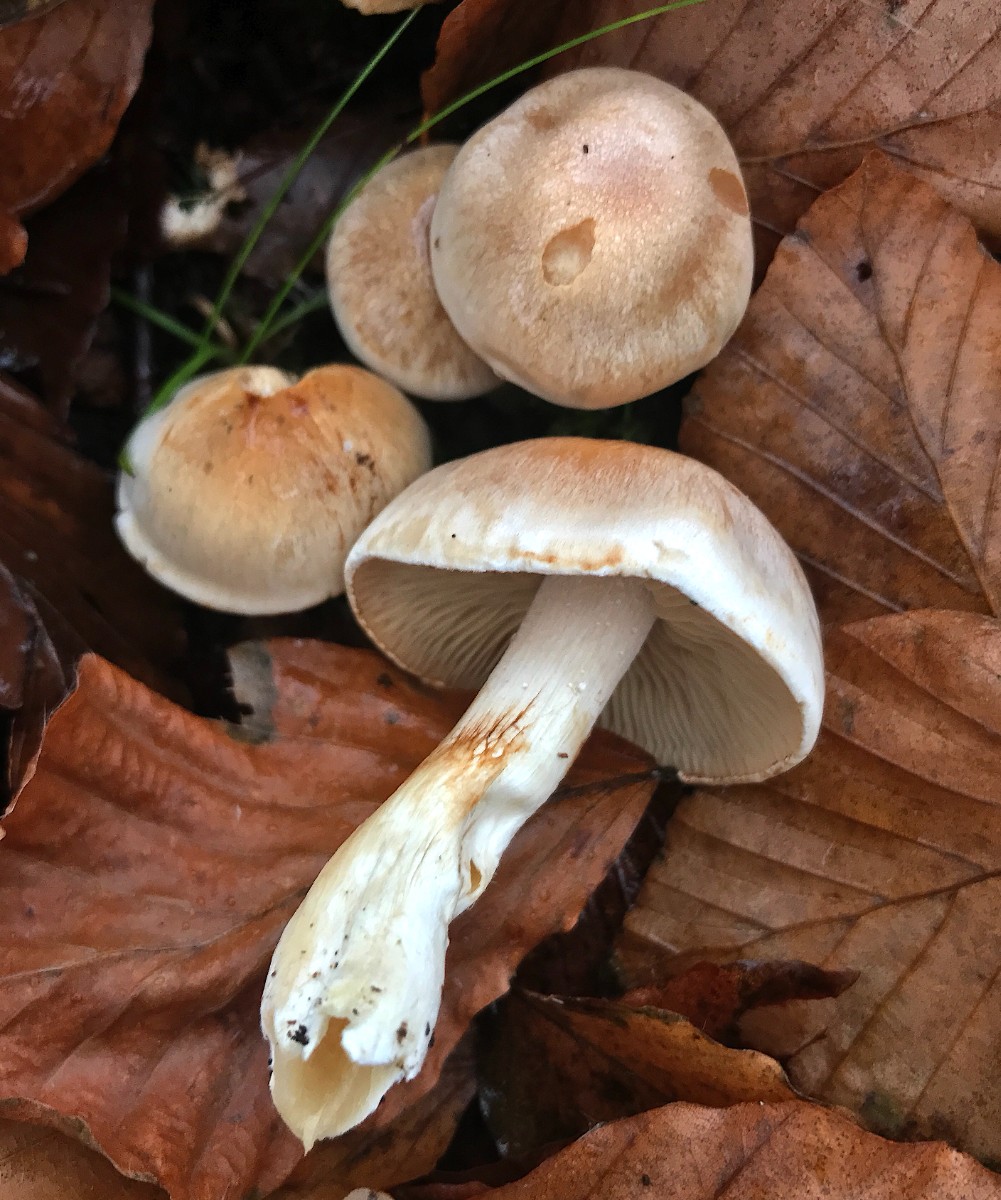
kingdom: Fungi
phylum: Basidiomycota
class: Agaricomycetes
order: Agaricales
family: Cortinariaceae
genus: Cortinarius
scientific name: Cortinarius
